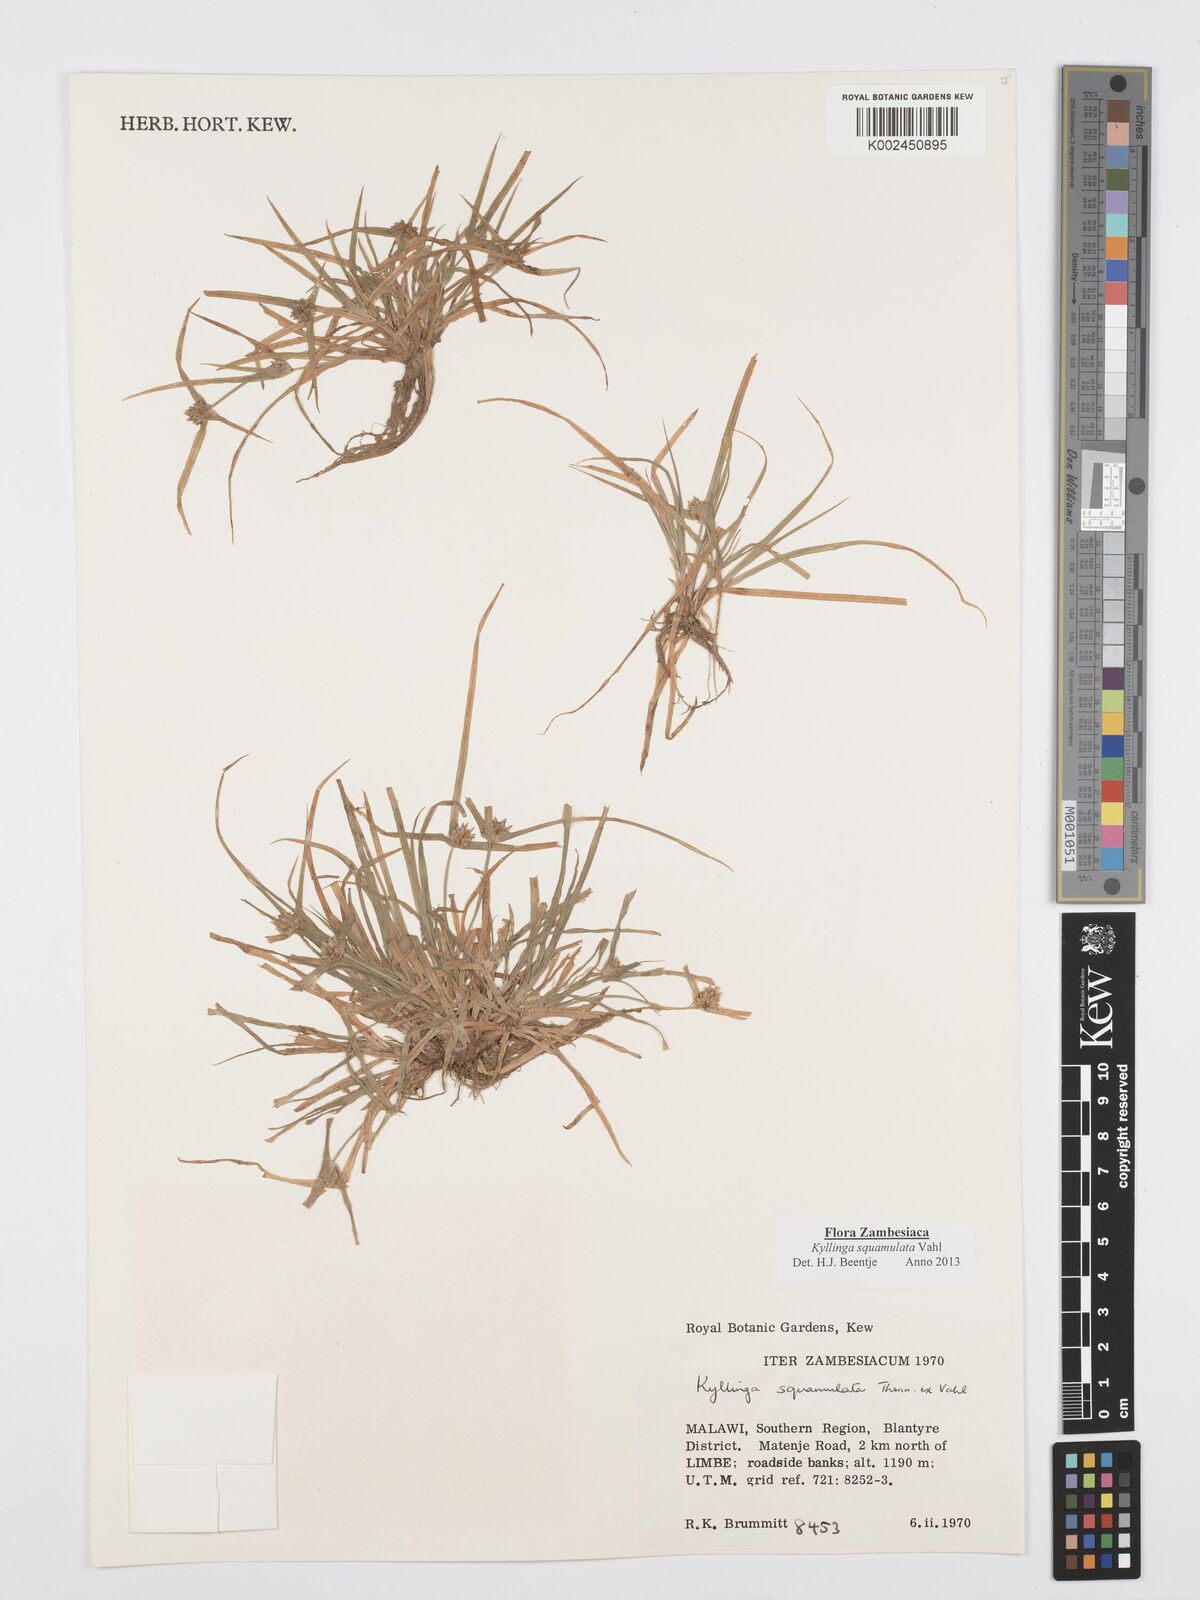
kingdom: Plantae
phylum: Tracheophyta
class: Liliopsida
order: Poales
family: Cyperaceae
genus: Cyperus
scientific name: Cyperus distans
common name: Slender cyperus
